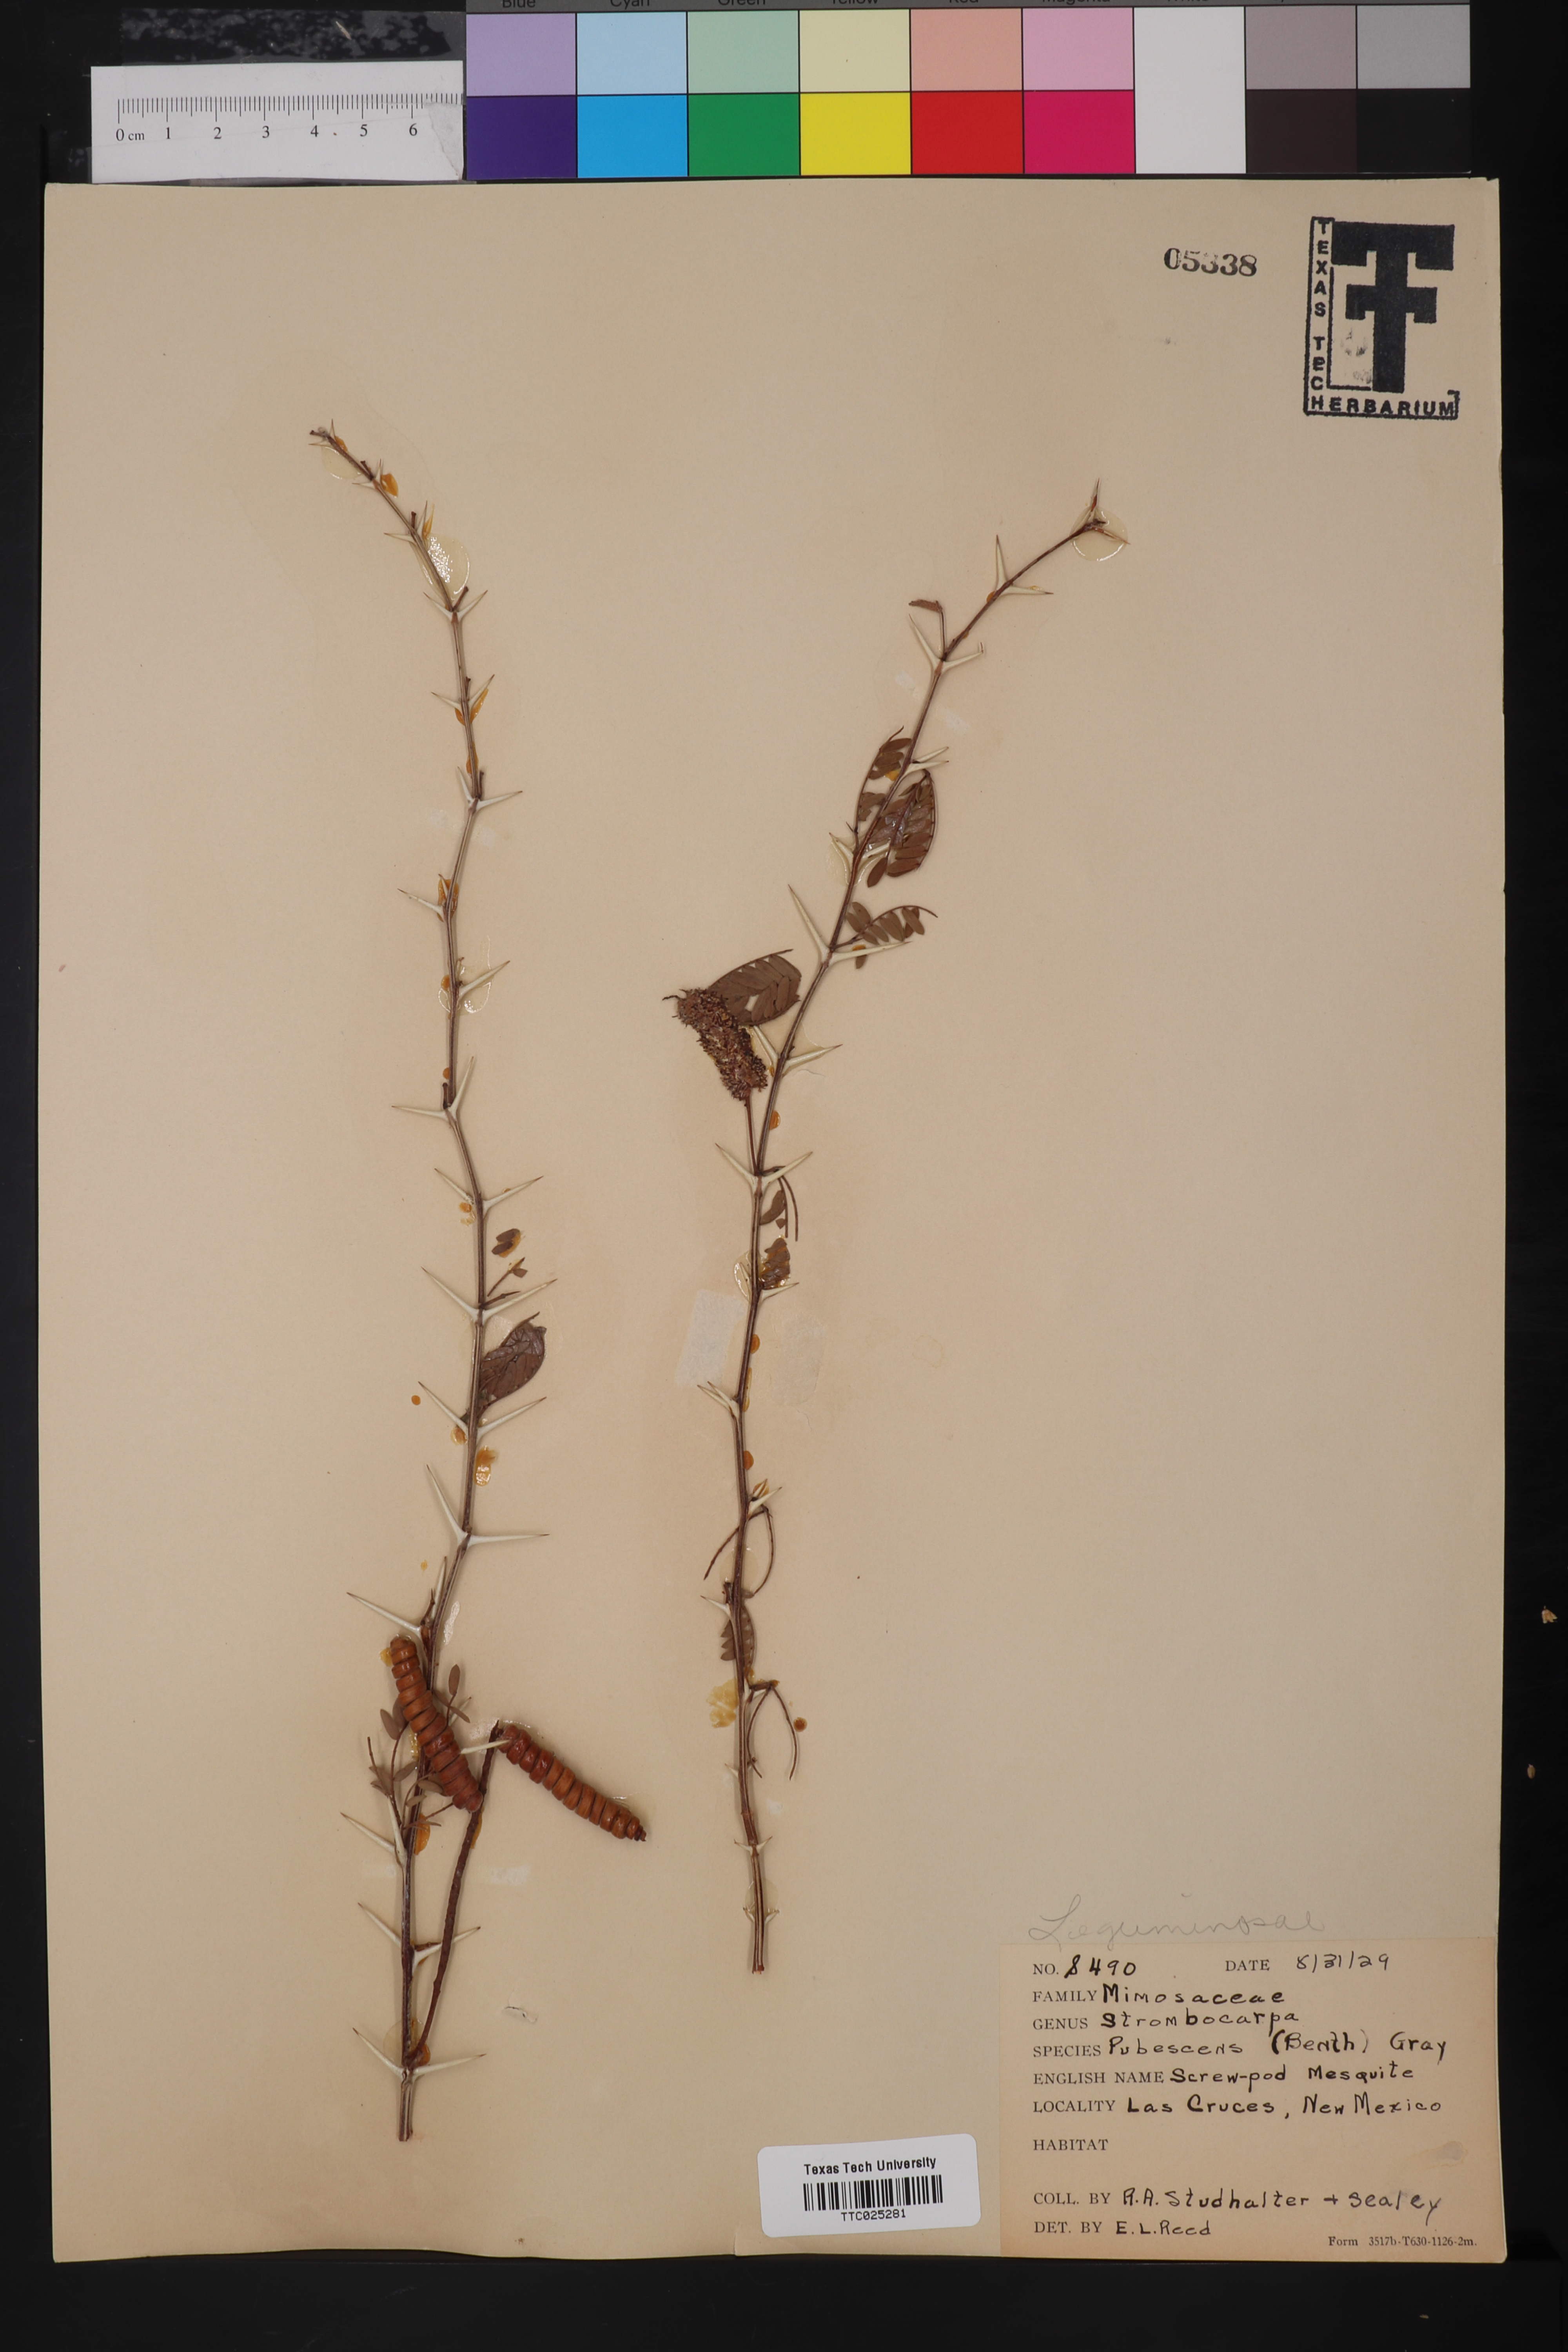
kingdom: Plantae
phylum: Tracheophyta
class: Magnoliopsida
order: Fabales
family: Fabaceae
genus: Prosopis
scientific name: Prosopis pubescens
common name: Screw-bean
